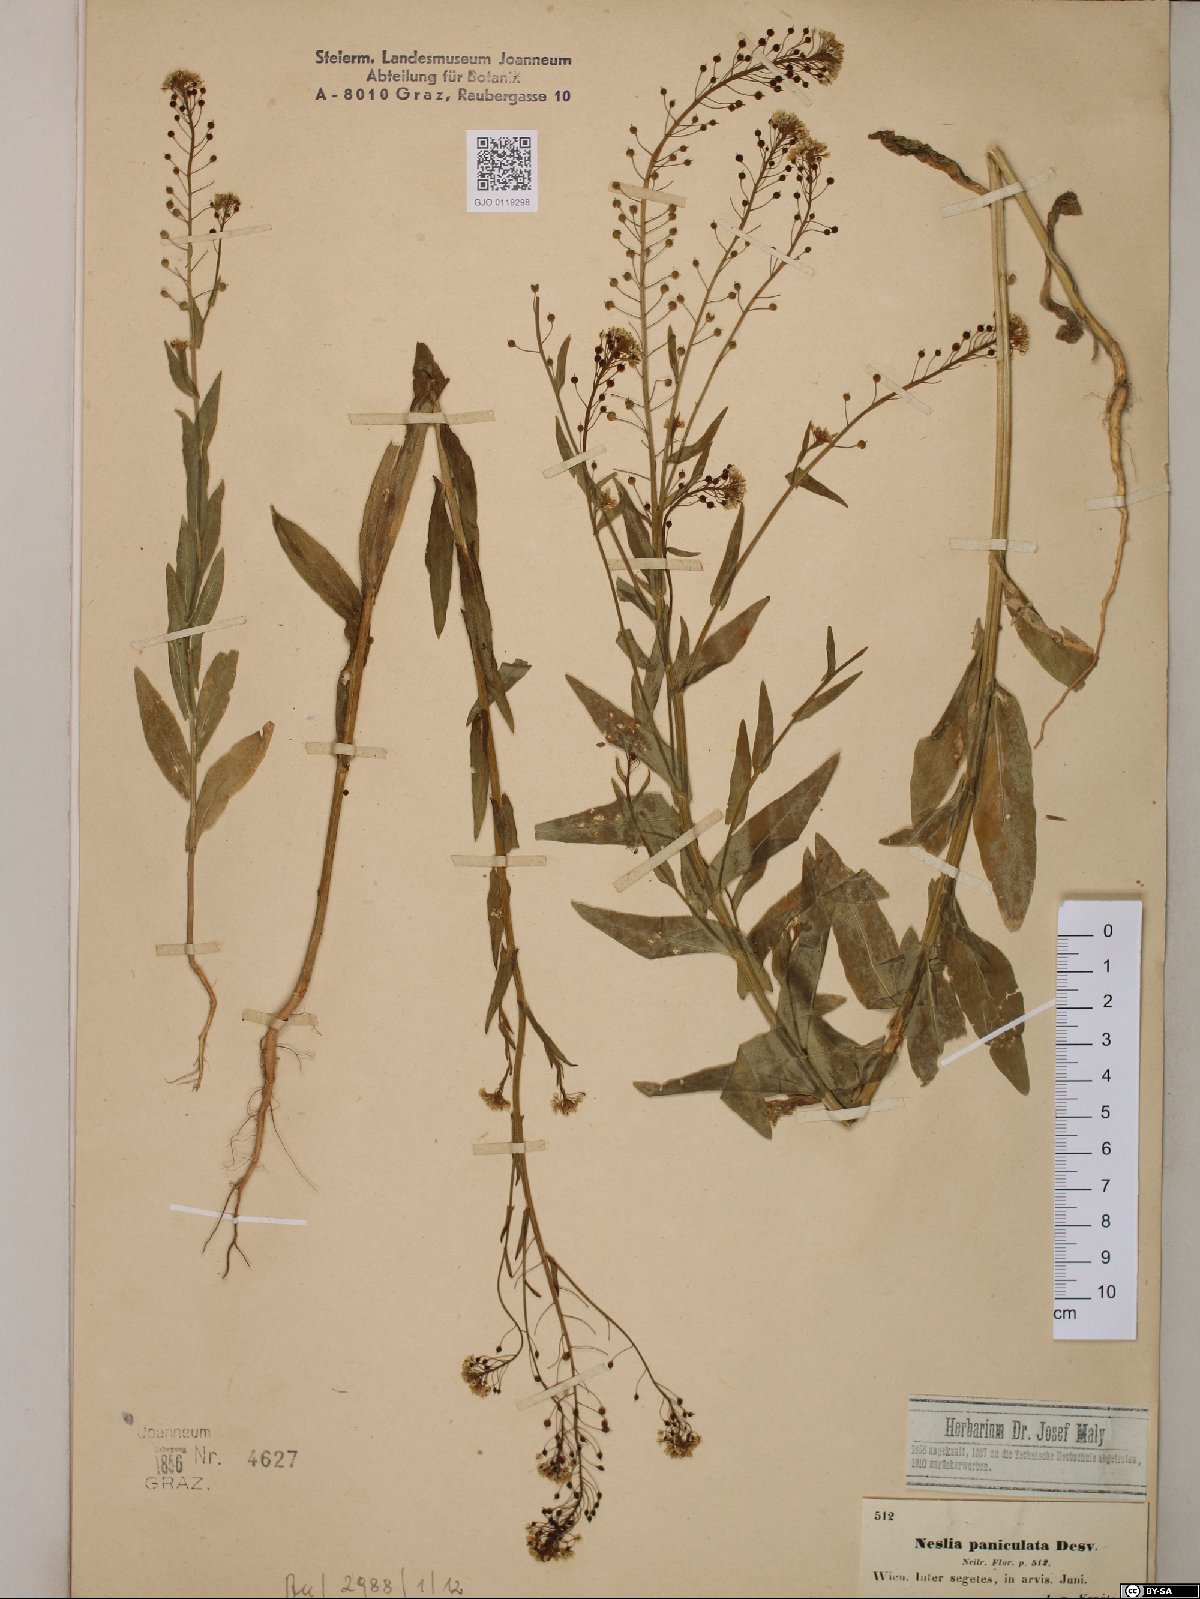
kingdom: Plantae
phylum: Tracheophyta
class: Magnoliopsida
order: Brassicales
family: Brassicaceae
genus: Neslia
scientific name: Neslia paniculata
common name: Ball mustard
